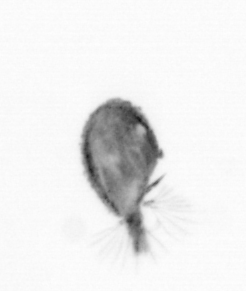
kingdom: Animalia
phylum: Arthropoda
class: Maxillopoda
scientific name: Maxillopoda
